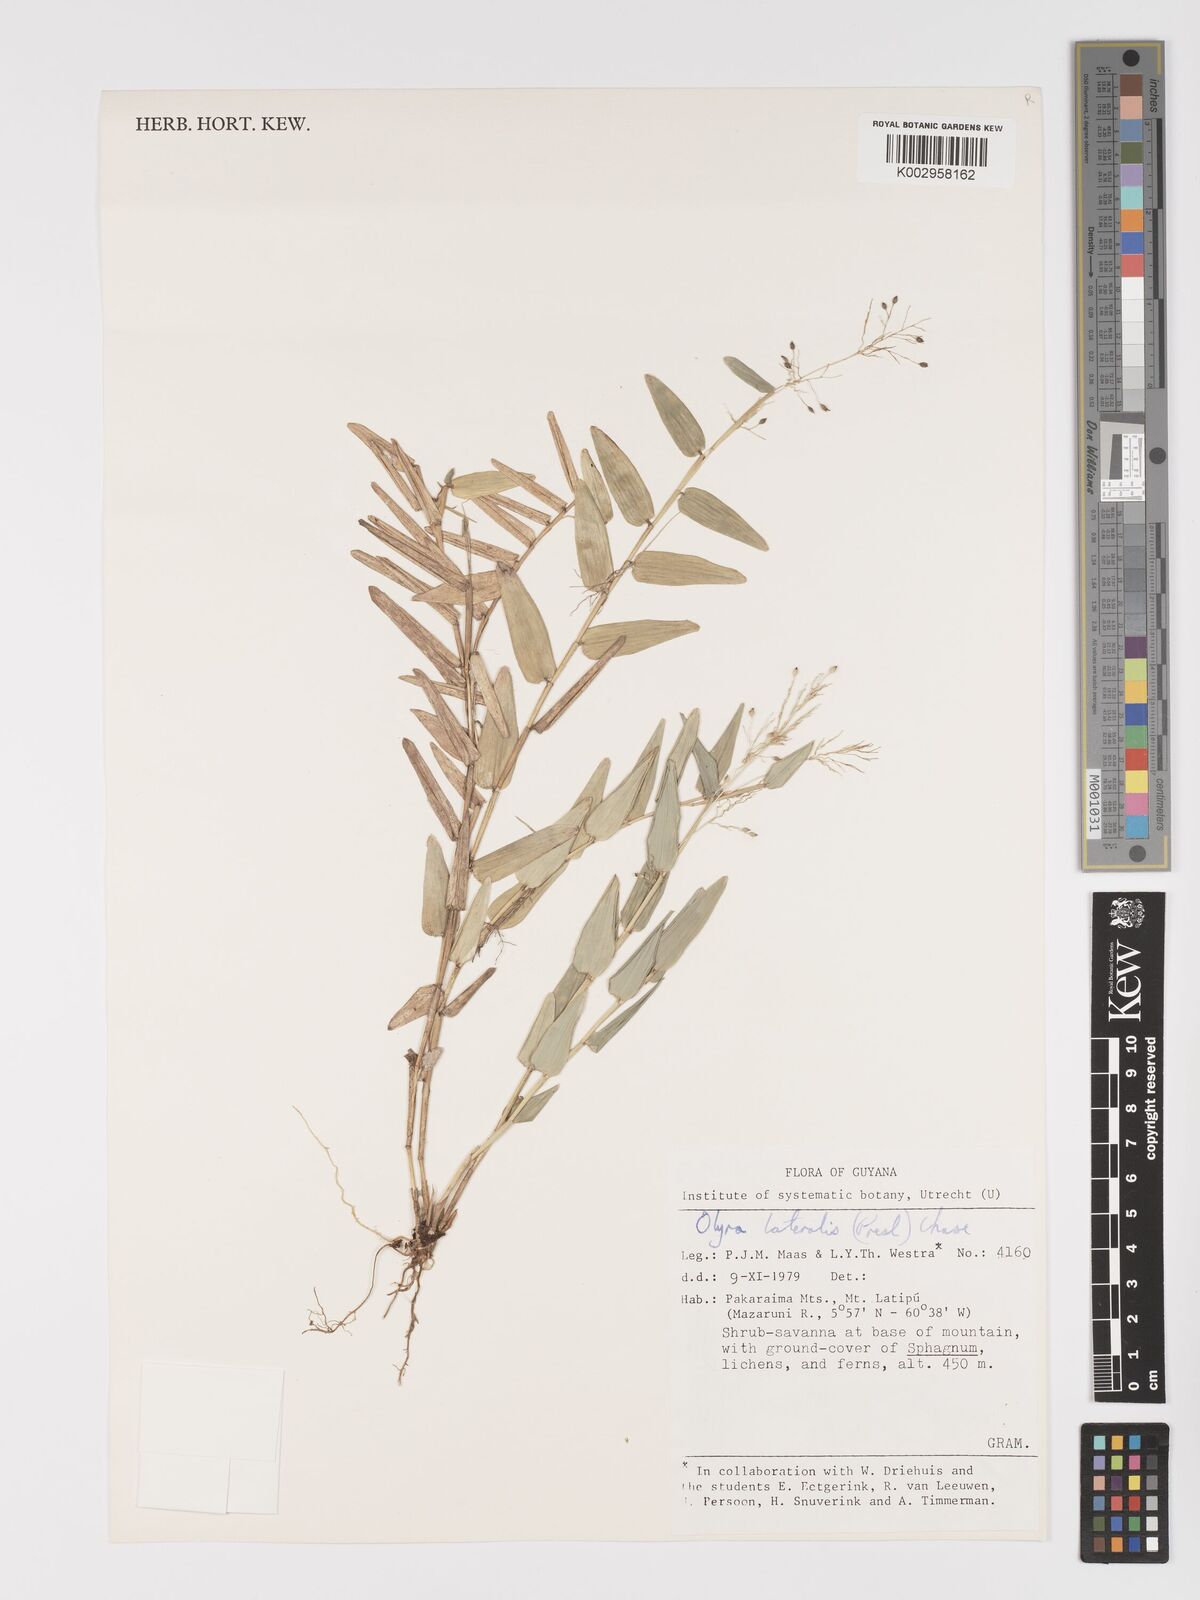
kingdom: Plantae
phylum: Tracheophyta
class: Liliopsida
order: Poales
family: Poaceae
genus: Parodiolyra
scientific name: Parodiolyra lateralis
